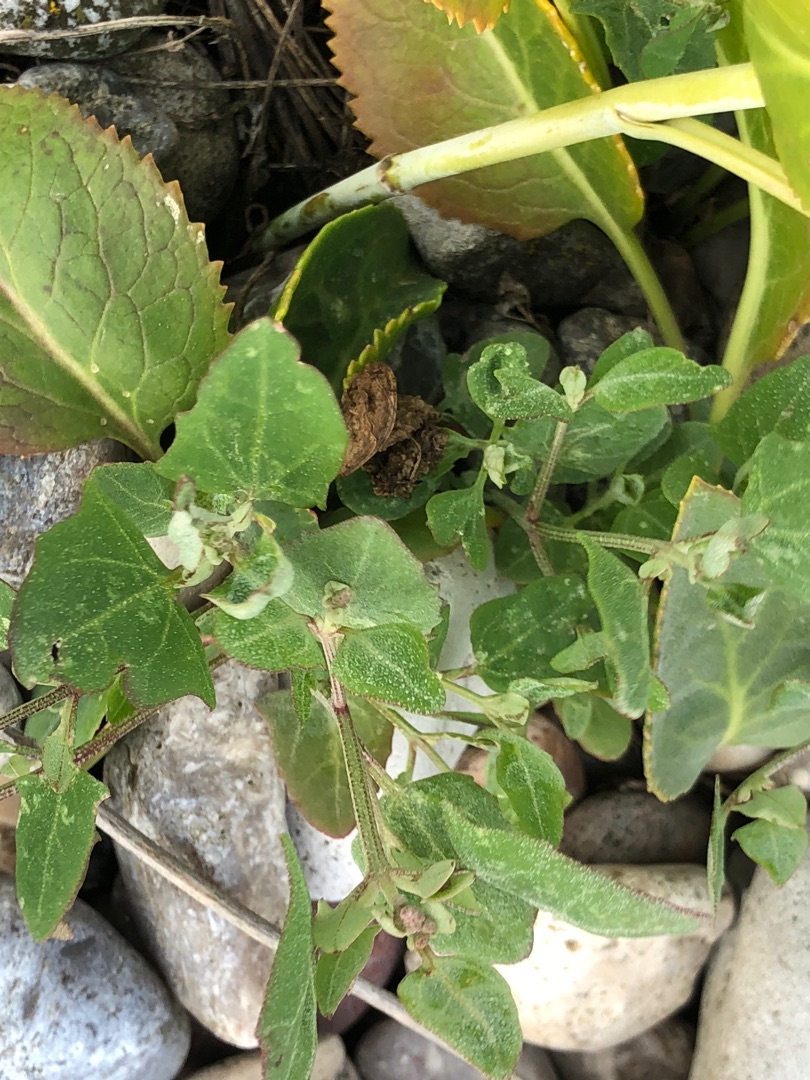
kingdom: Plantae
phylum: Tracheophyta
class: Magnoliopsida
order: Caryophyllales
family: Amaranthaceae
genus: Atriplex
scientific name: Atriplex prostrata
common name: Spyd-mælde
